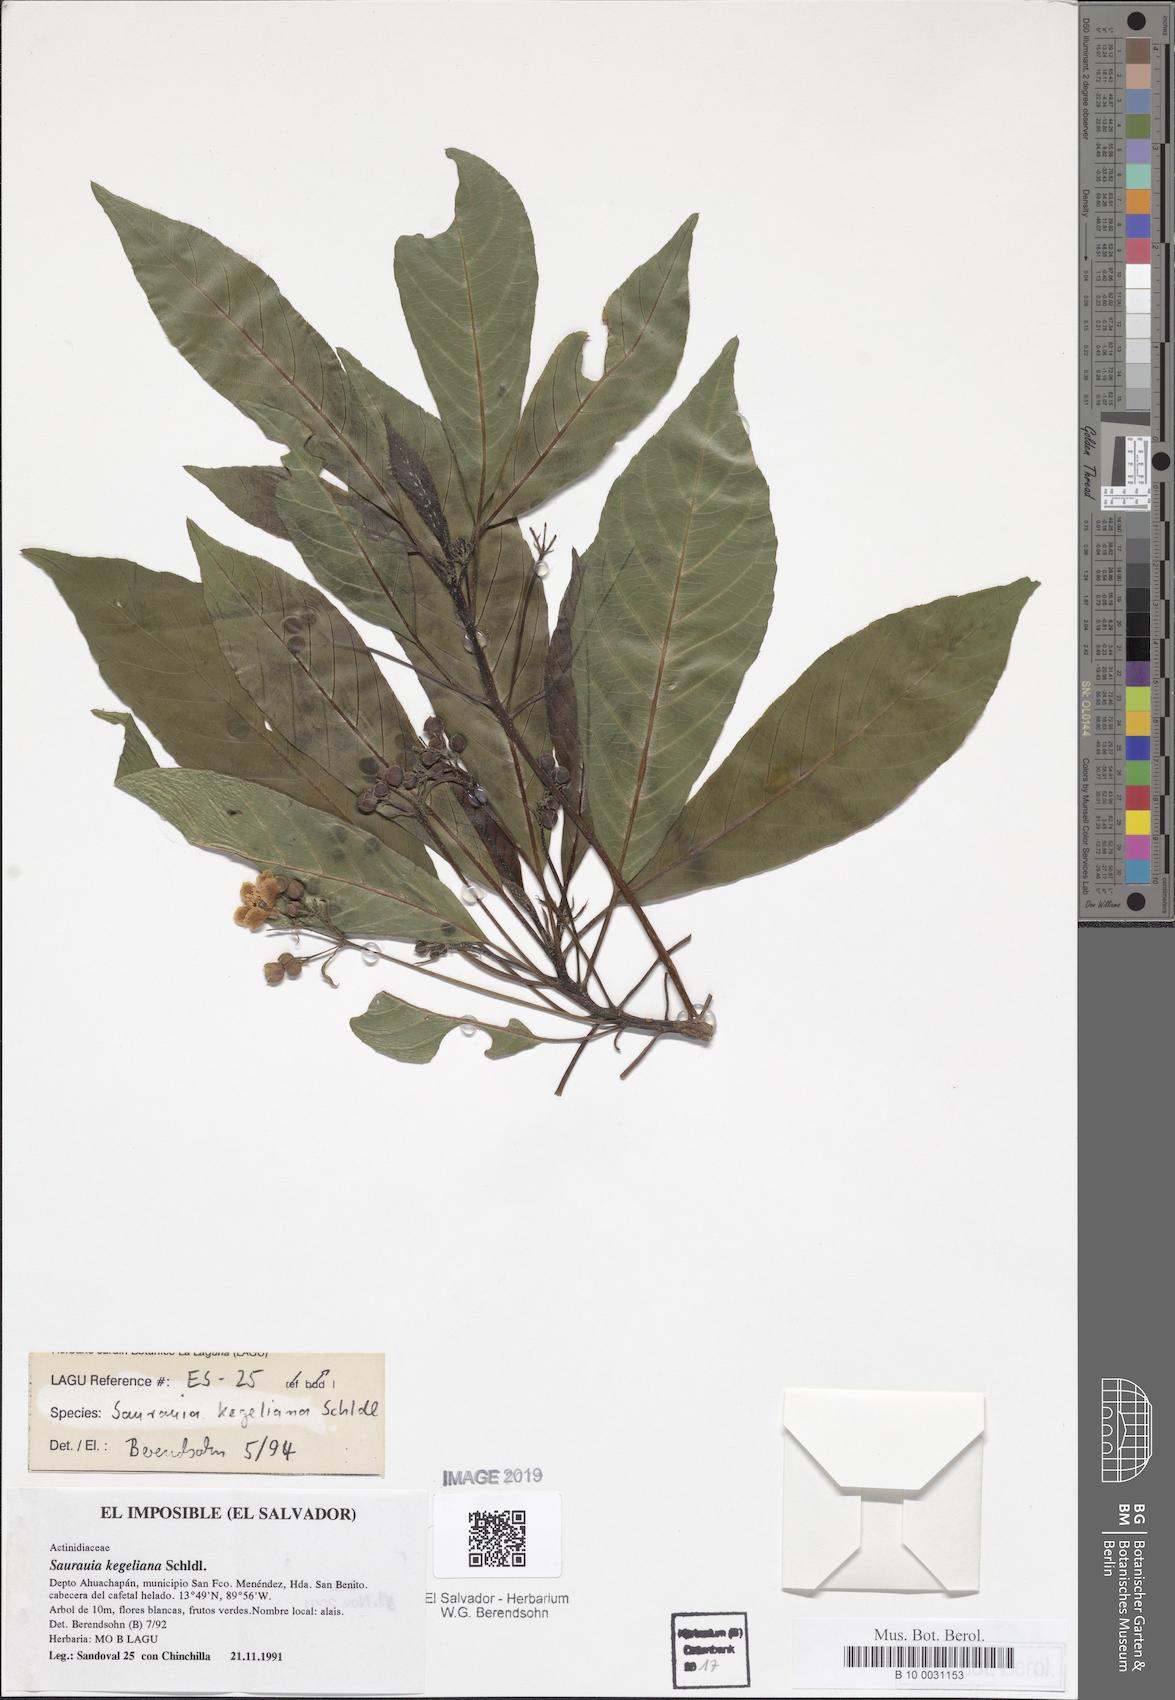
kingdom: Plantae
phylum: Tracheophyta
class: Magnoliopsida
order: Ericales
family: Actinidiaceae
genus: Saurauia
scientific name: Saurauia kegeliana
